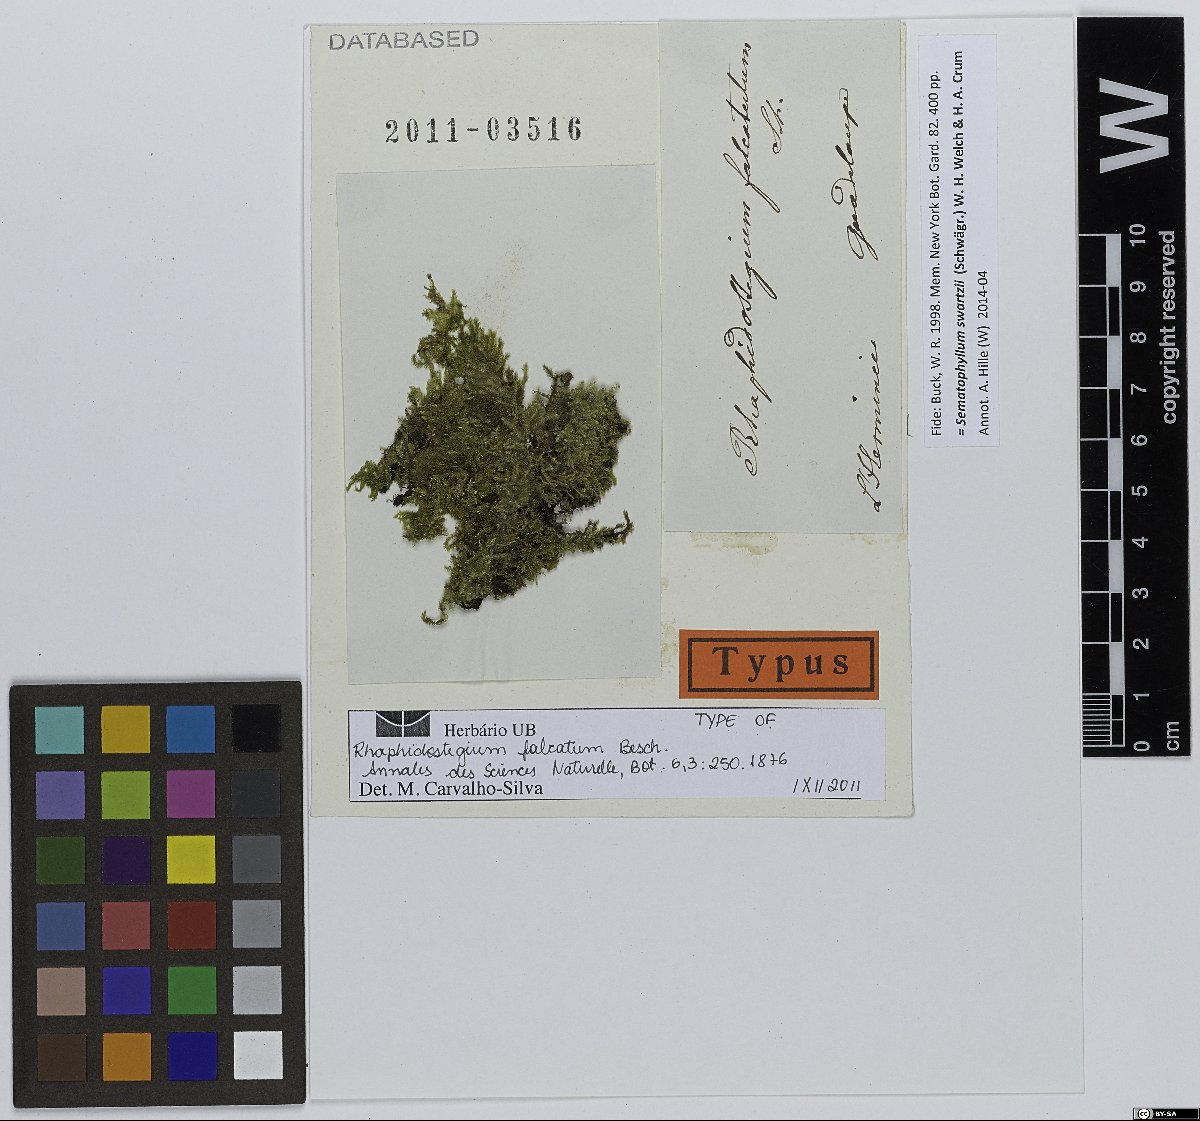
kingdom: Plantae
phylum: Bryophyta
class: Bryopsida
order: Hypnales
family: Sematophyllaceae
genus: Sematophyllum
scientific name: Sematophyllum swartzii
